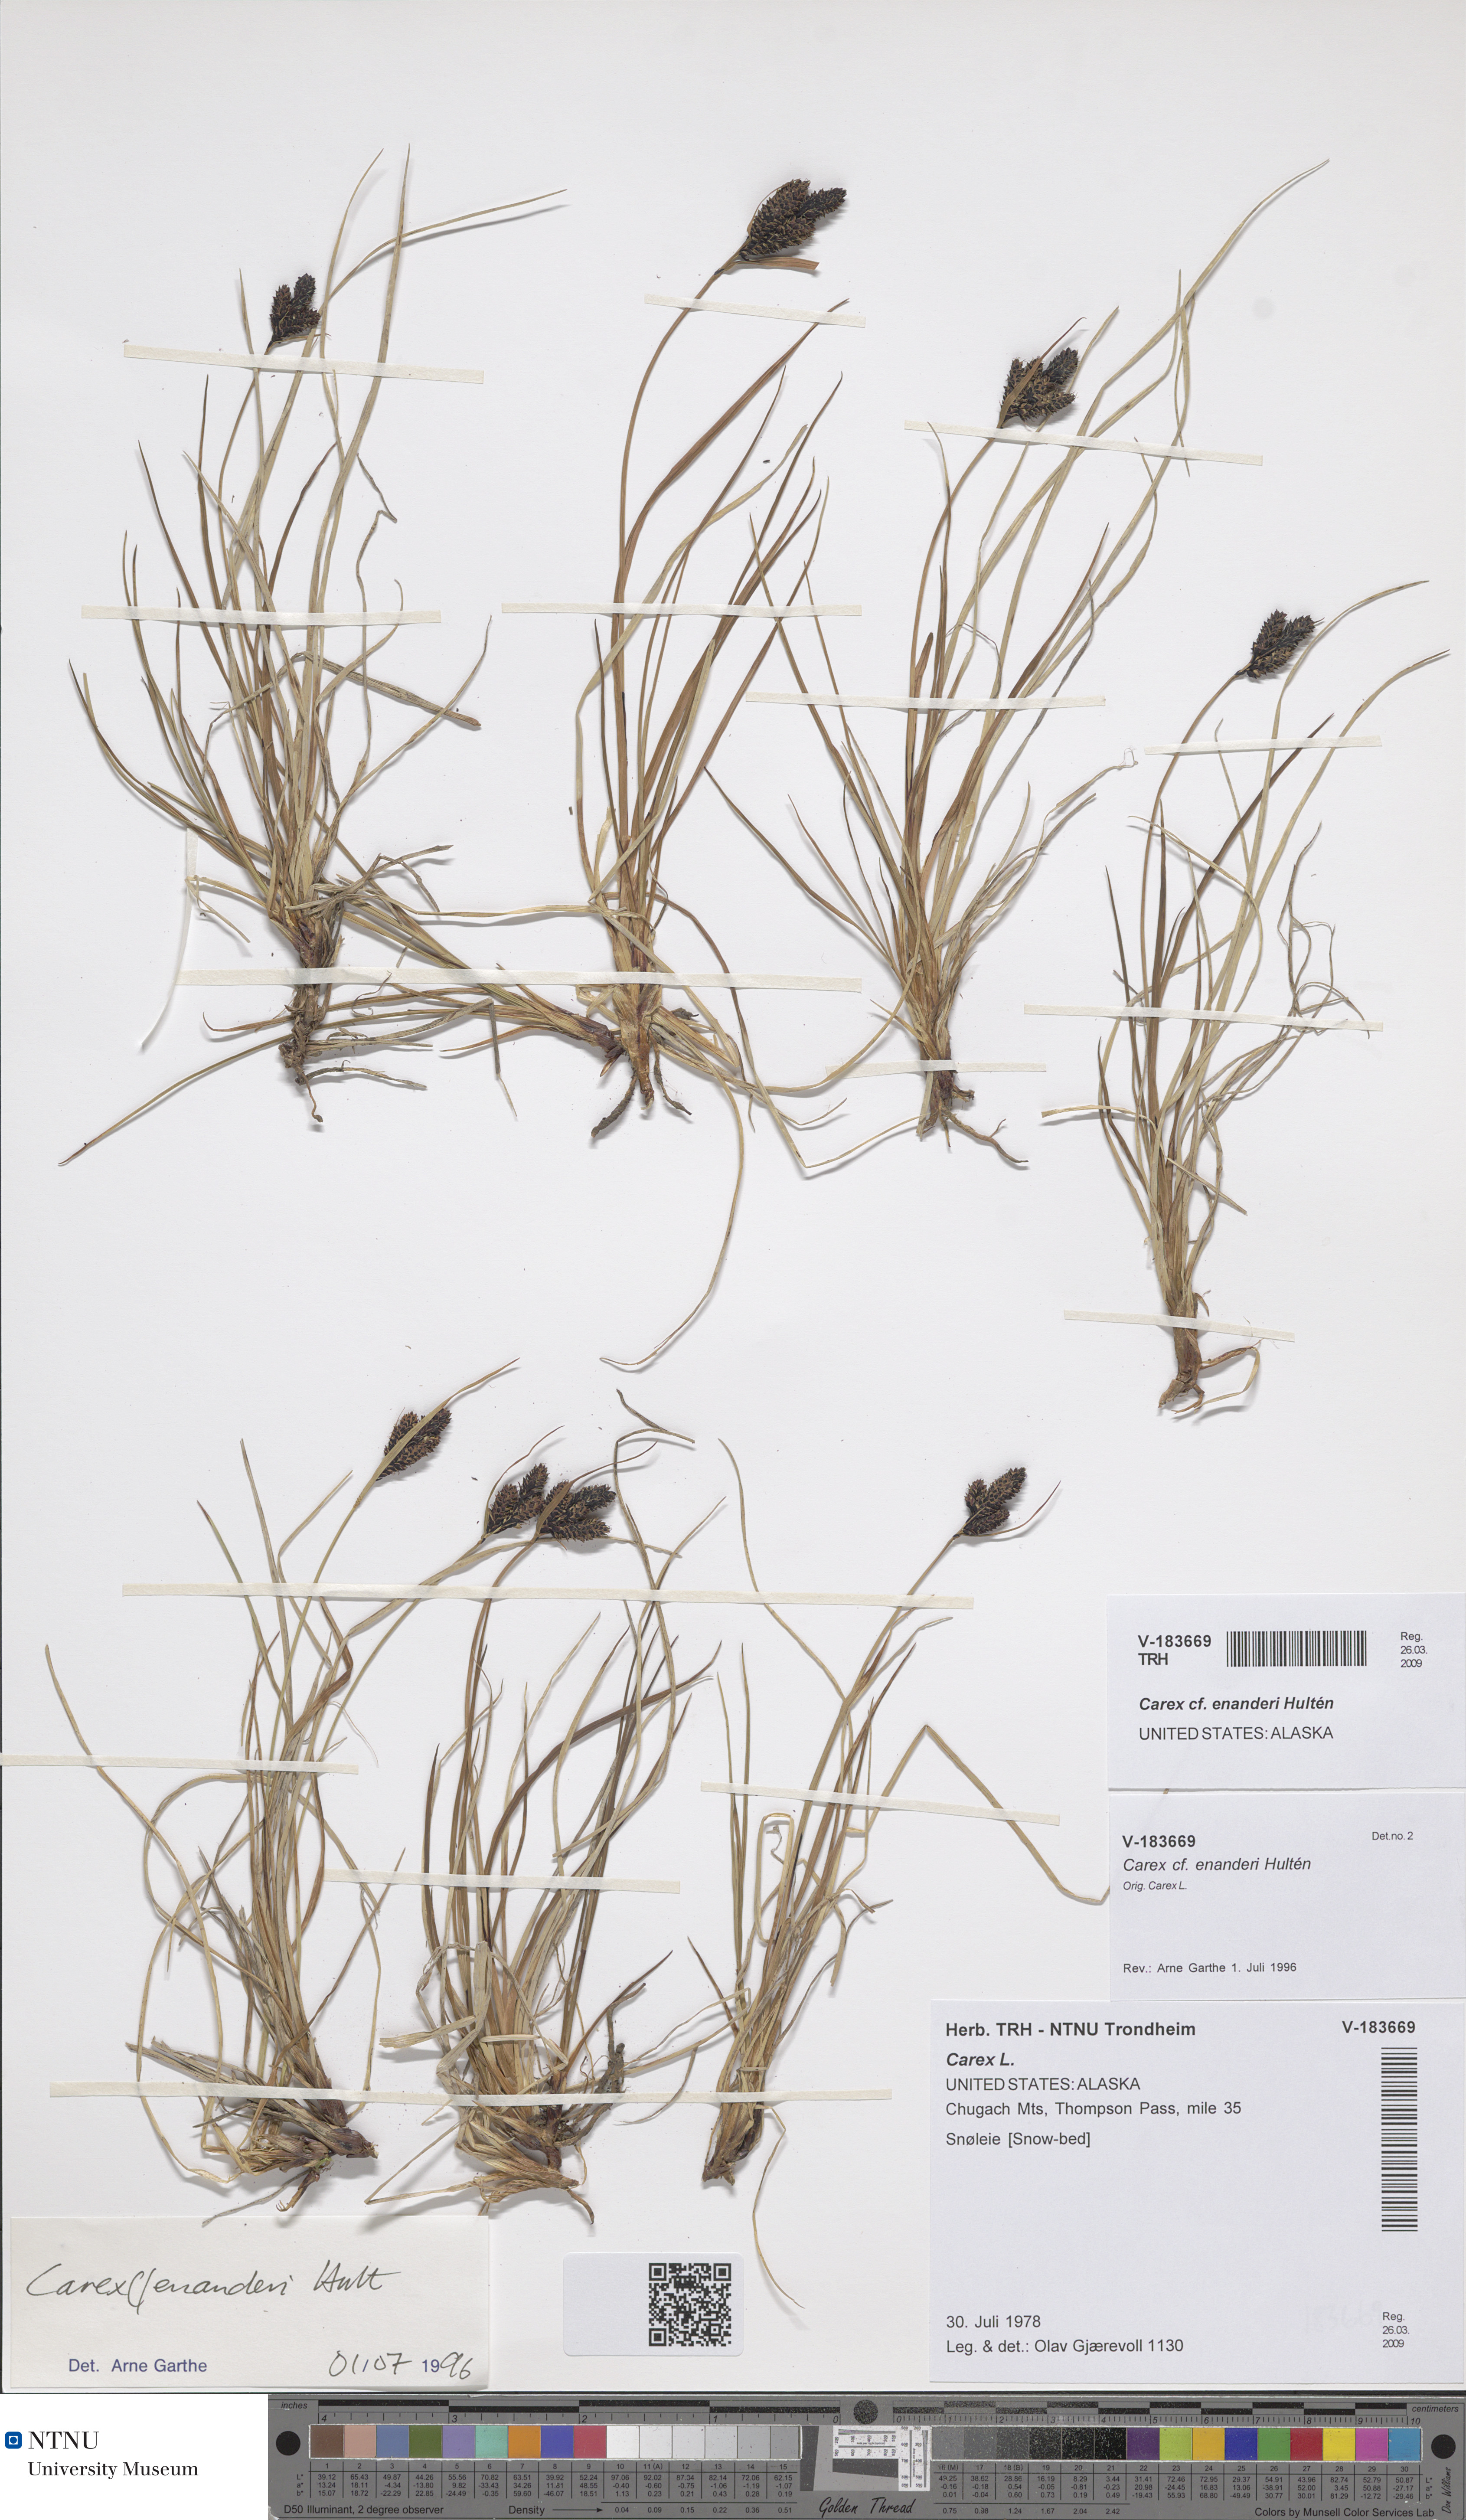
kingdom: Plantae
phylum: Tracheophyta
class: Liliopsida
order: Poales
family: Cyperaceae
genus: Carex
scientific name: Carex plectocarpa
